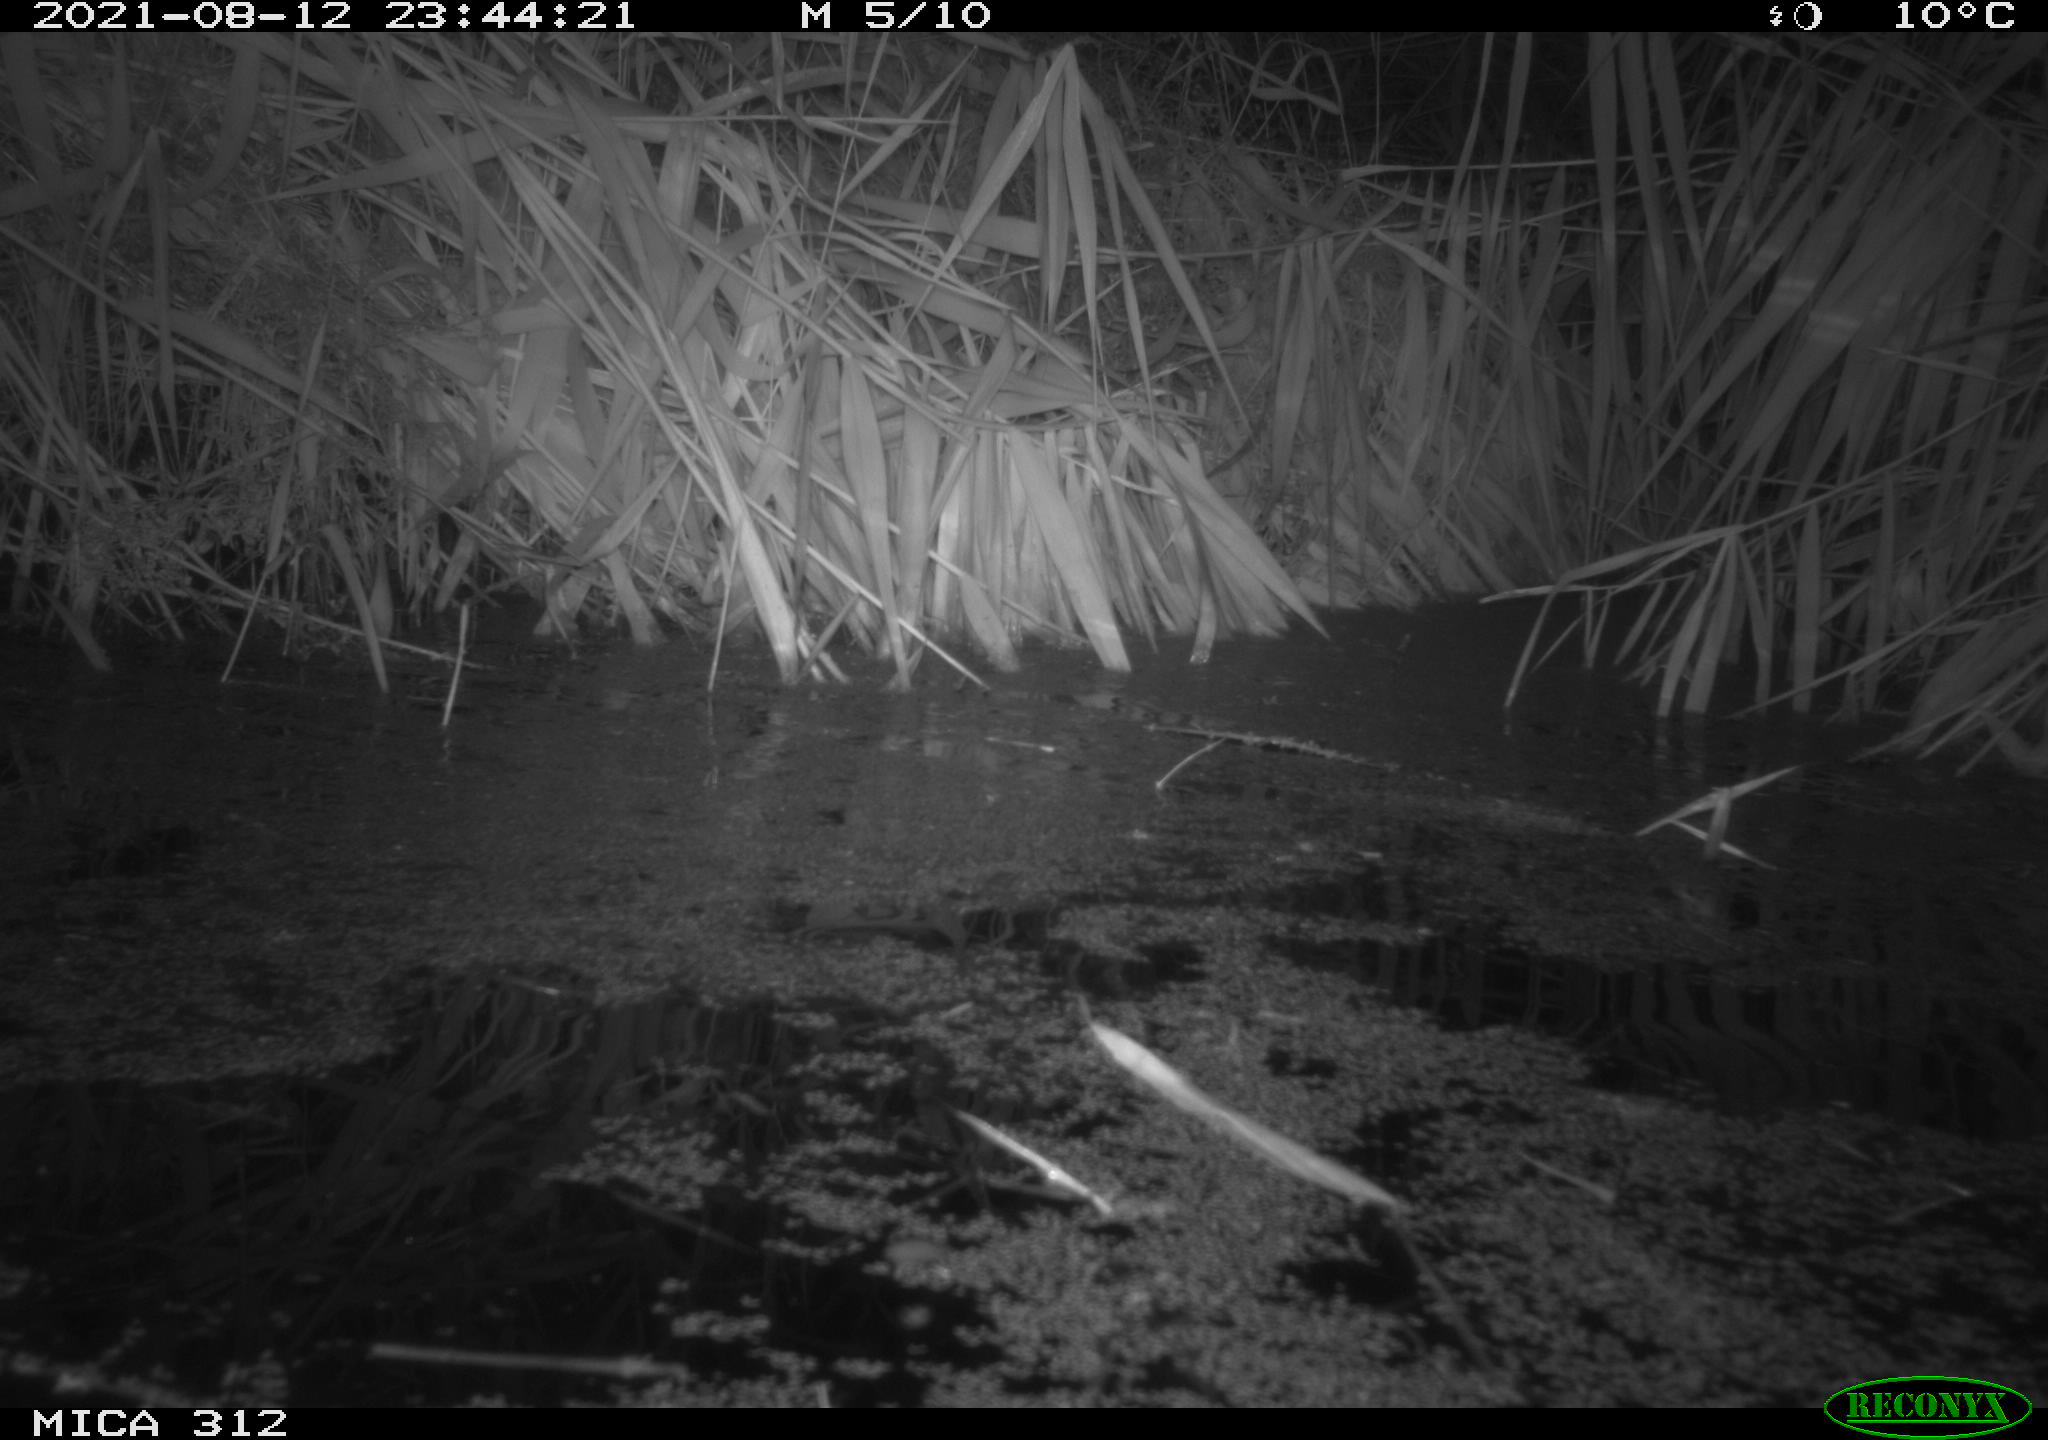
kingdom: Animalia
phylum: Chordata
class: Mammalia
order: Rodentia
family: Muridae
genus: Rattus
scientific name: Rattus norvegicus
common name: Brown rat
